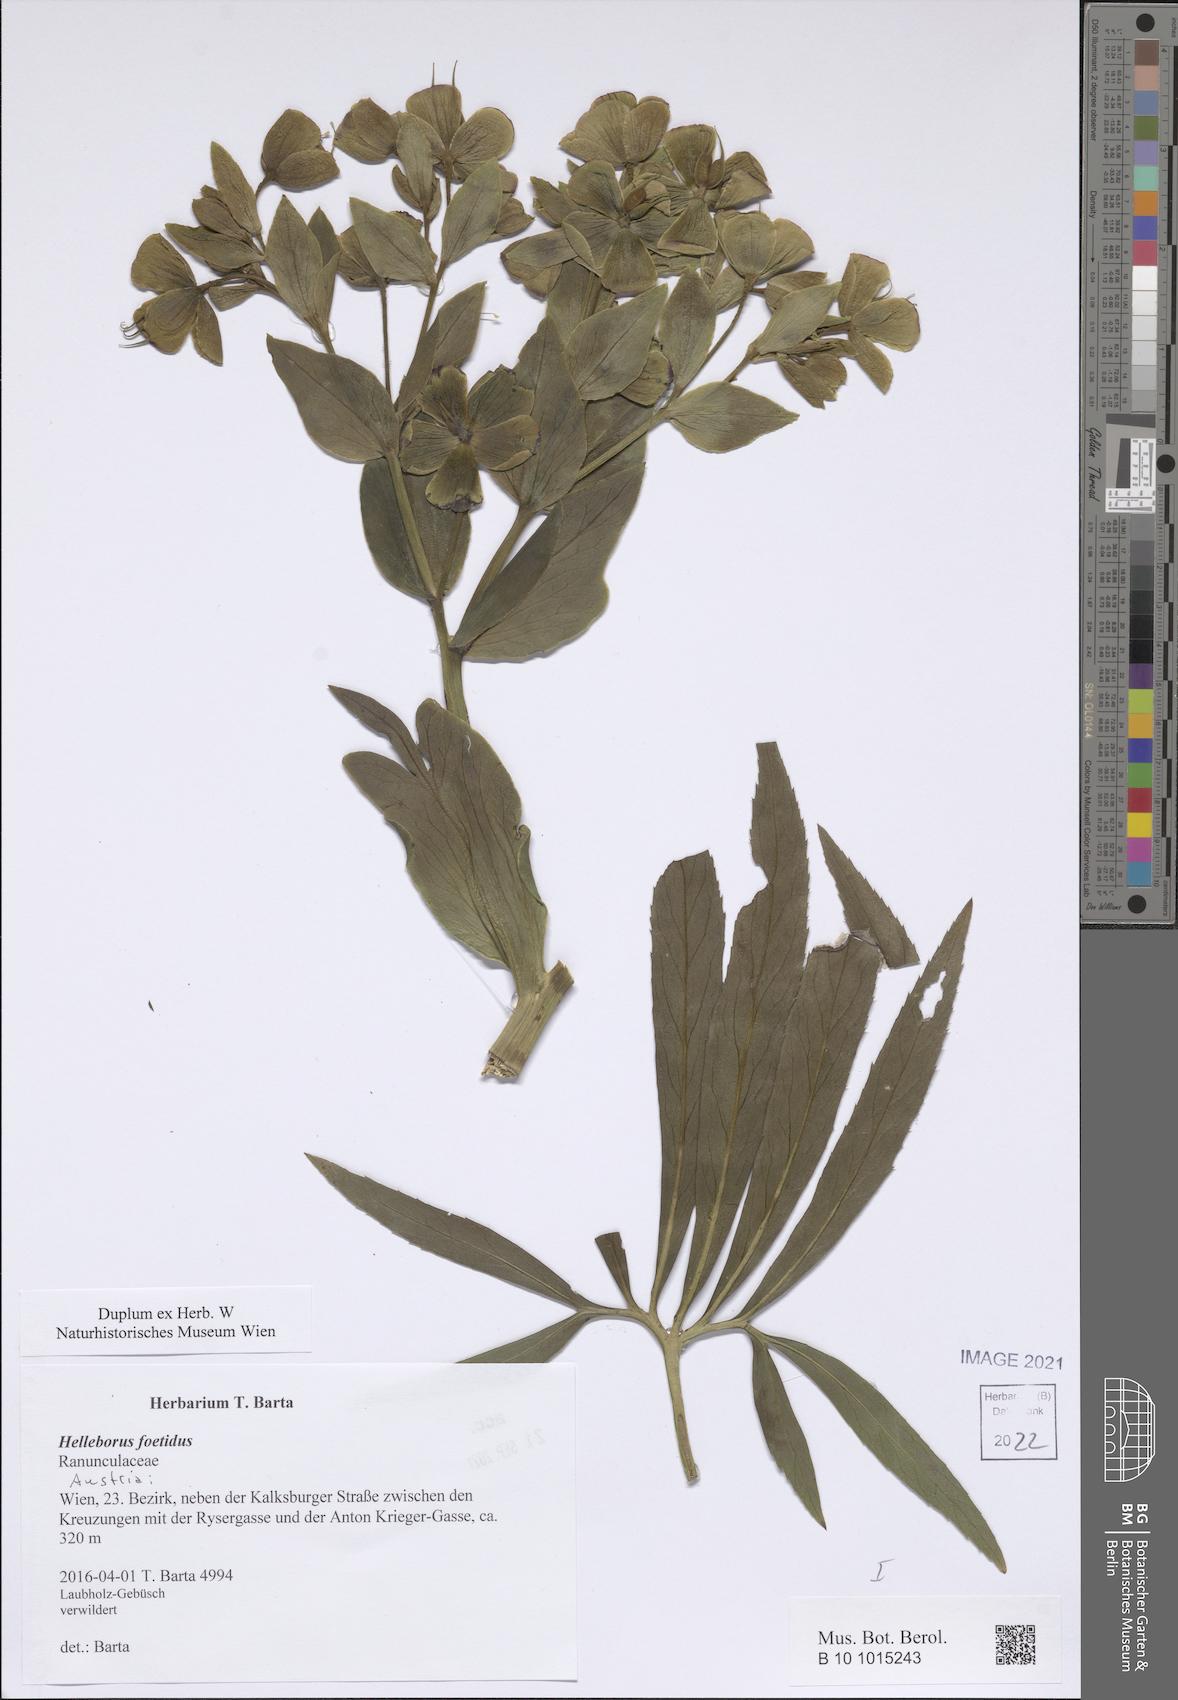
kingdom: Plantae
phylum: Tracheophyta
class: Magnoliopsida
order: Ranunculales
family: Ranunculaceae
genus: Helleborus
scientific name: Helleborus foetidus
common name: Stinking hellebore
